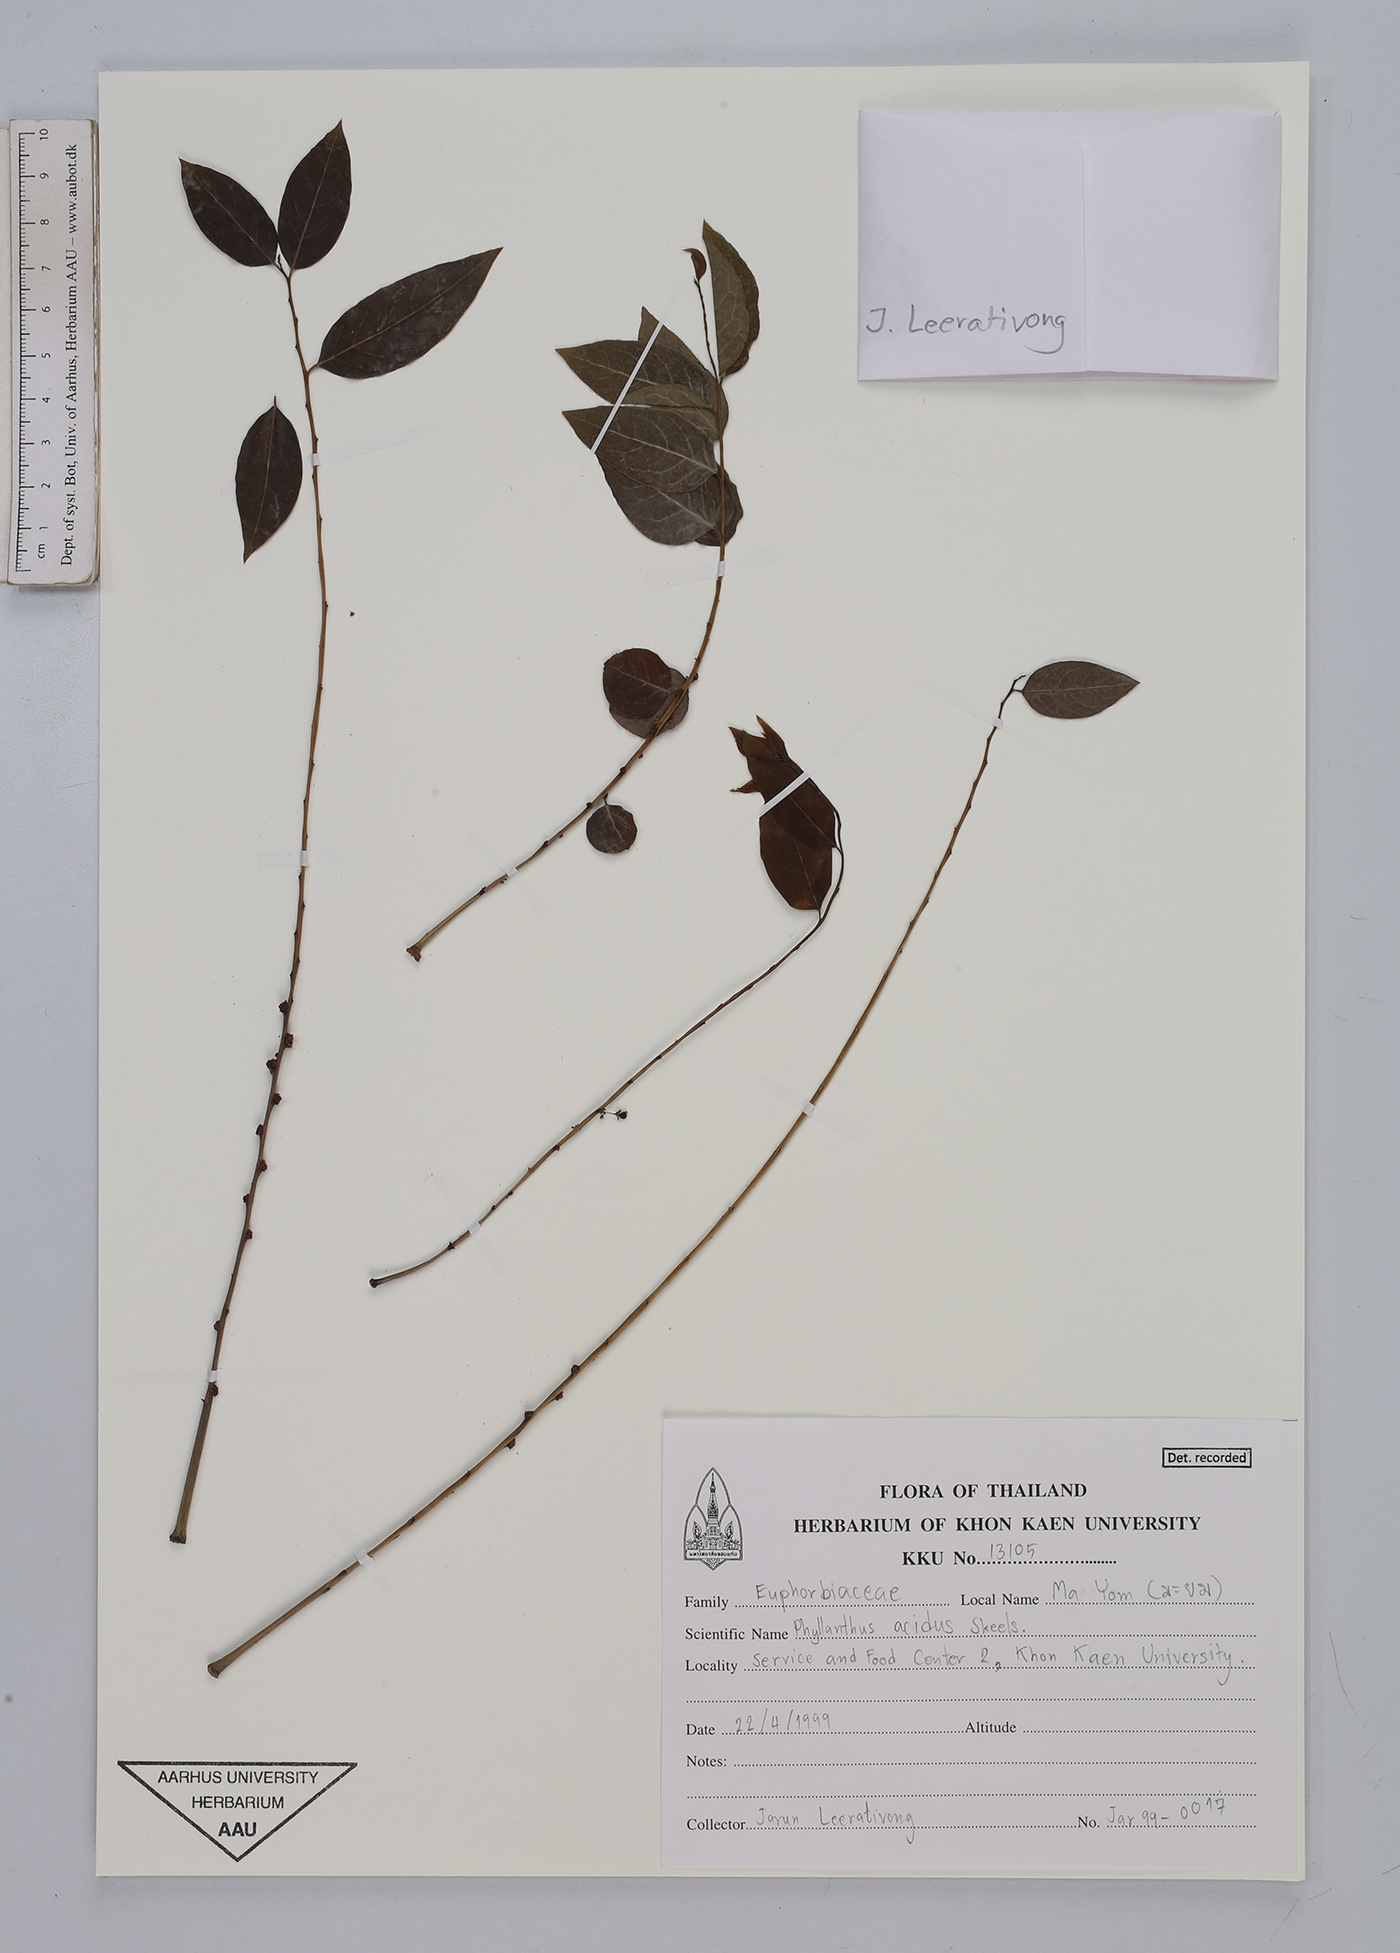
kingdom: Plantae
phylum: Tracheophyta
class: Magnoliopsida
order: Malpighiales
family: Phyllanthaceae
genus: Phyllanthus
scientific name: Phyllanthus acidus
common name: Tahitian gooseberry tree
